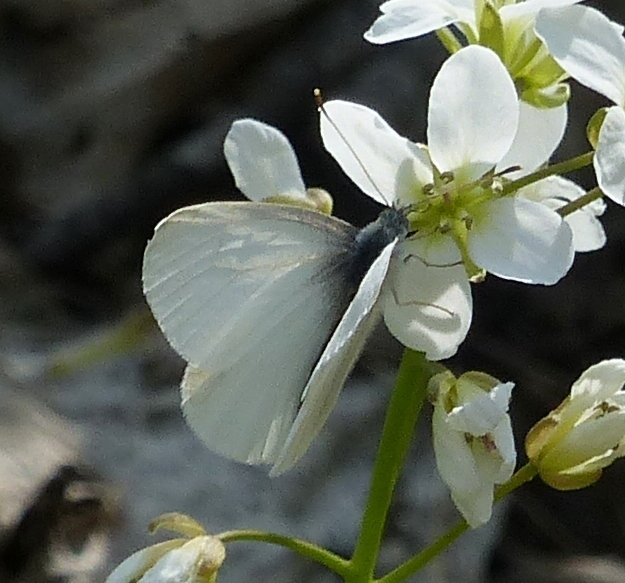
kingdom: Animalia
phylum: Arthropoda
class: Insecta
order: Lepidoptera
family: Pieridae
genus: Pieris
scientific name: Pieris virginiensis
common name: West Virginia White
